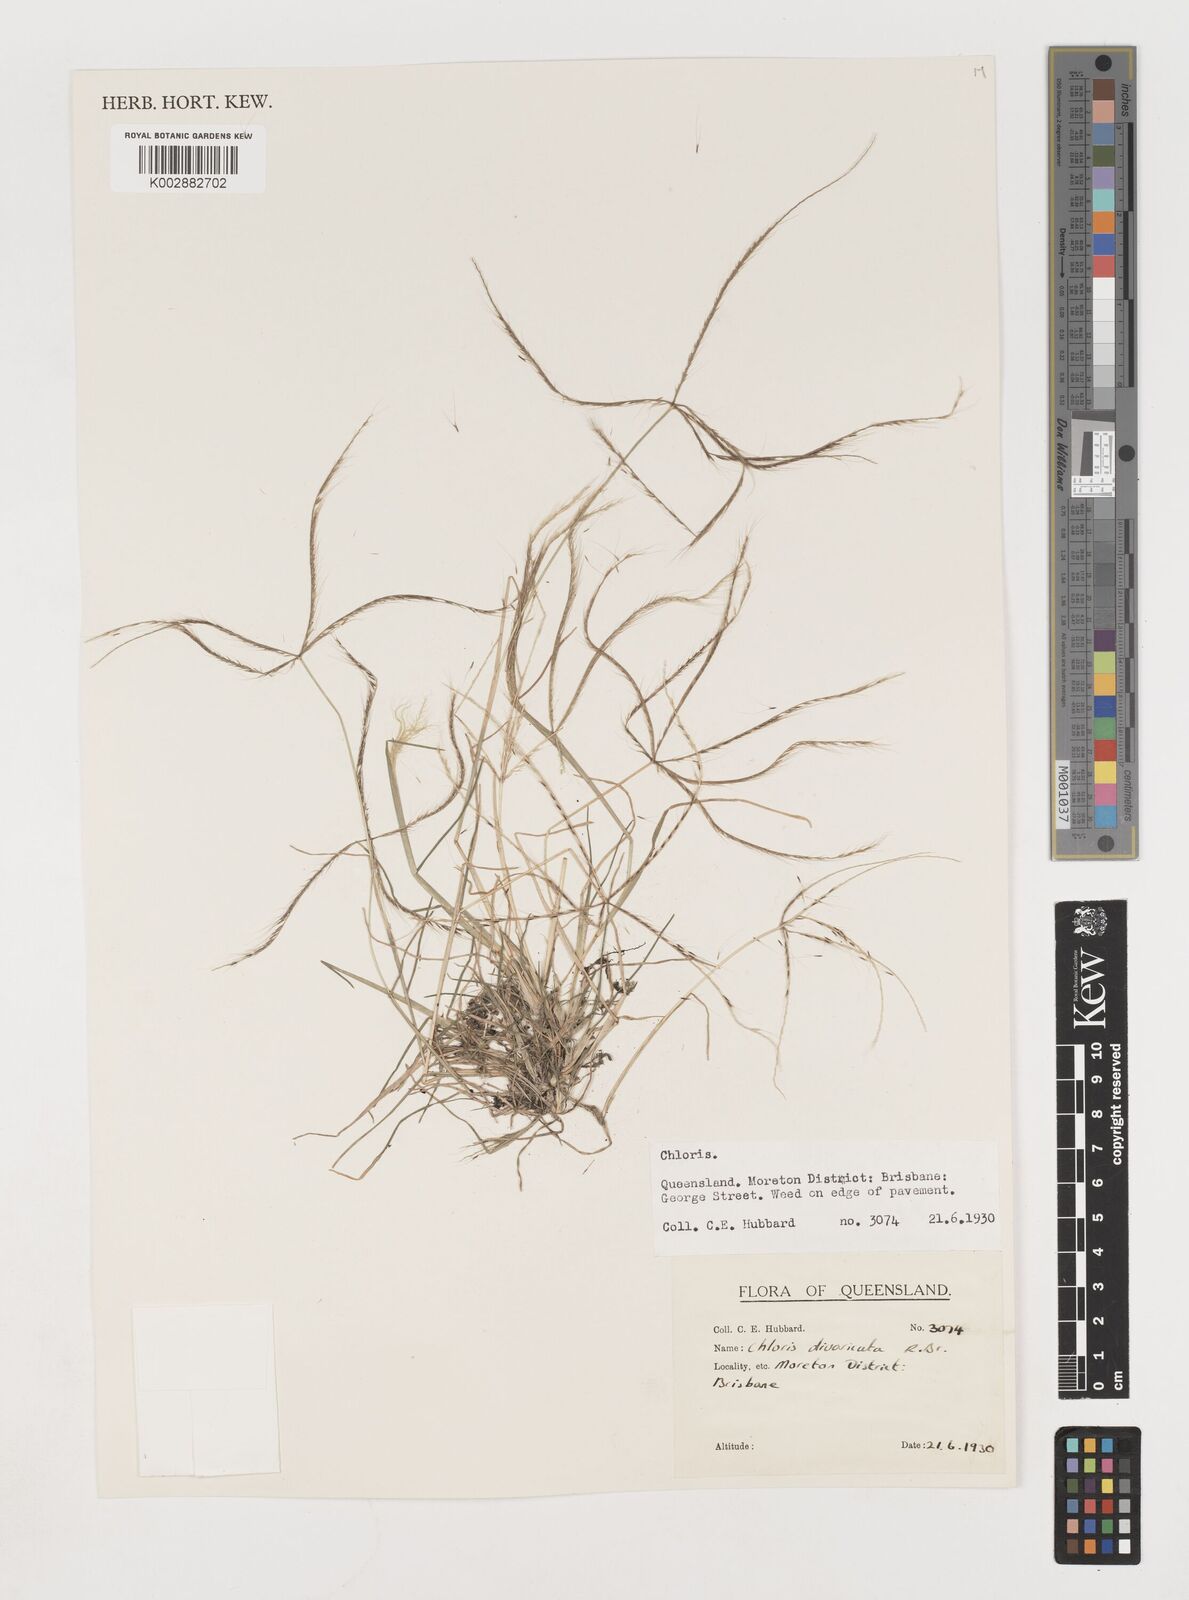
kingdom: Plantae
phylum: Tracheophyta
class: Liliopsida
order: Poales
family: Poaceae
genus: Chloris
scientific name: Chloris divaricata
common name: Spreading windmill grass
